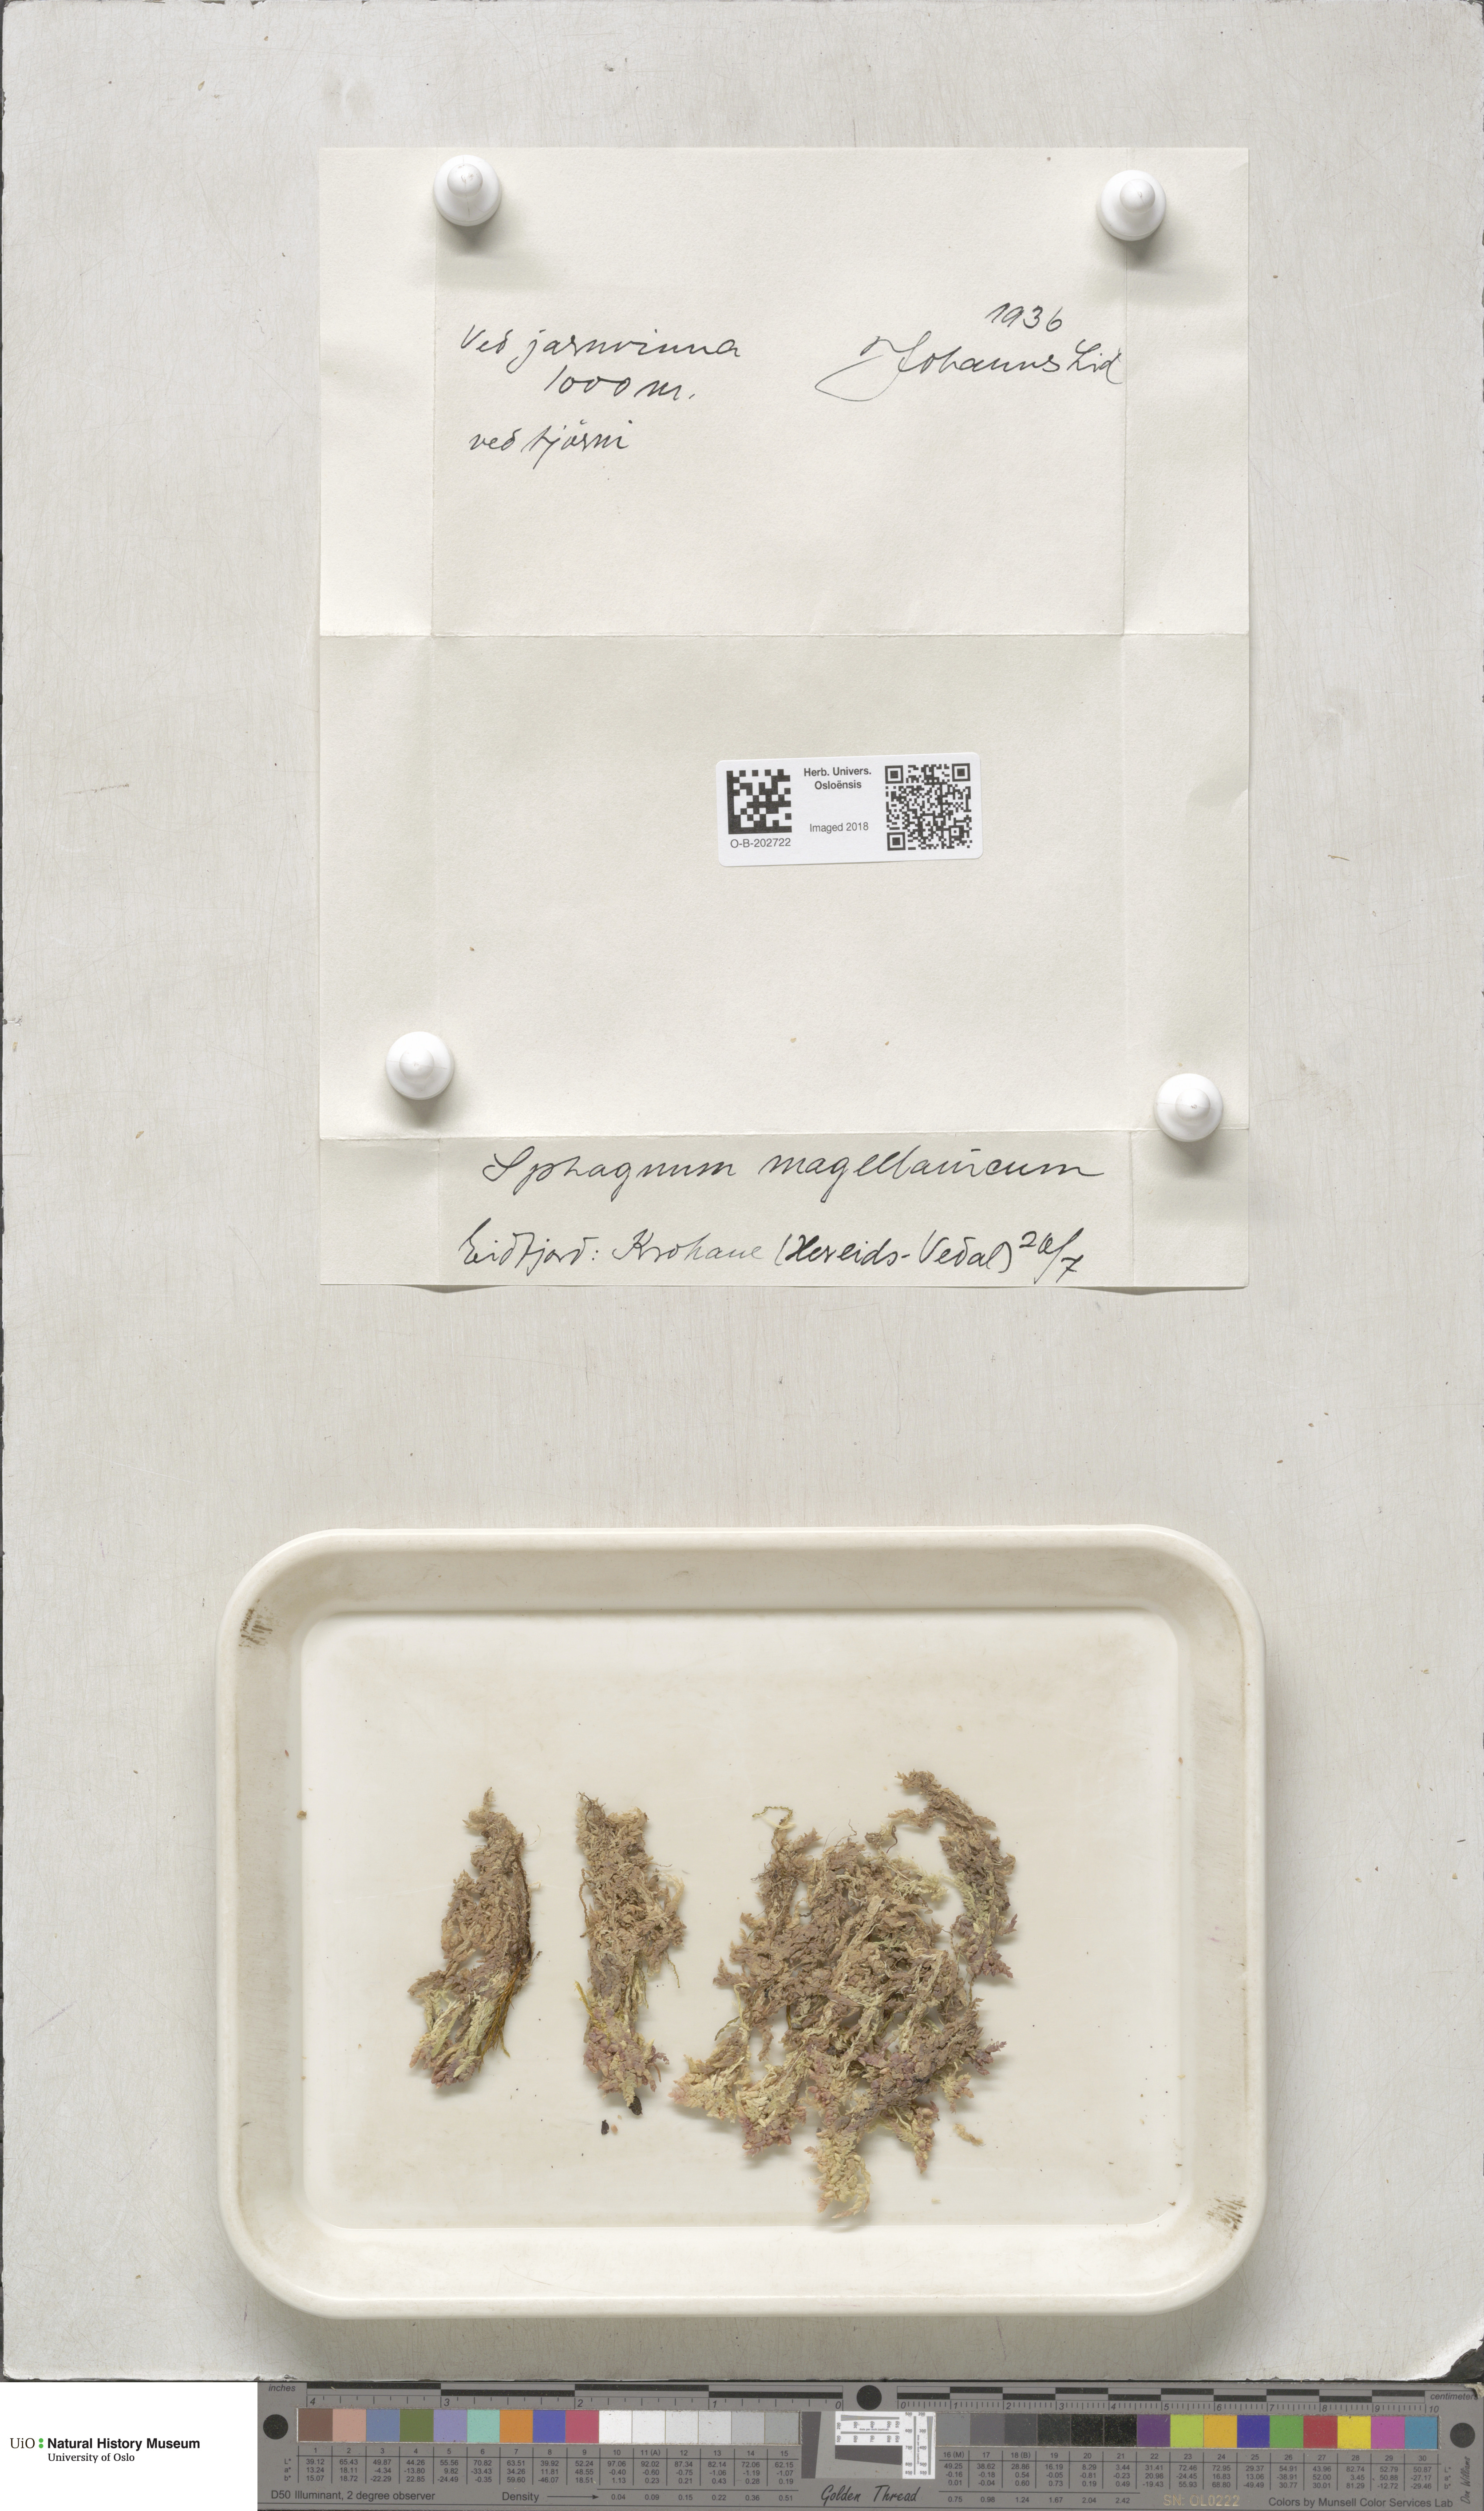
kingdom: Plantae
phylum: Bryophyta
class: Sphagnopsida
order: Sphagnales
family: Sphagnaceae
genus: Sphagnum
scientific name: Sphagnum magellanicum
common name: Magellan's peat moss
